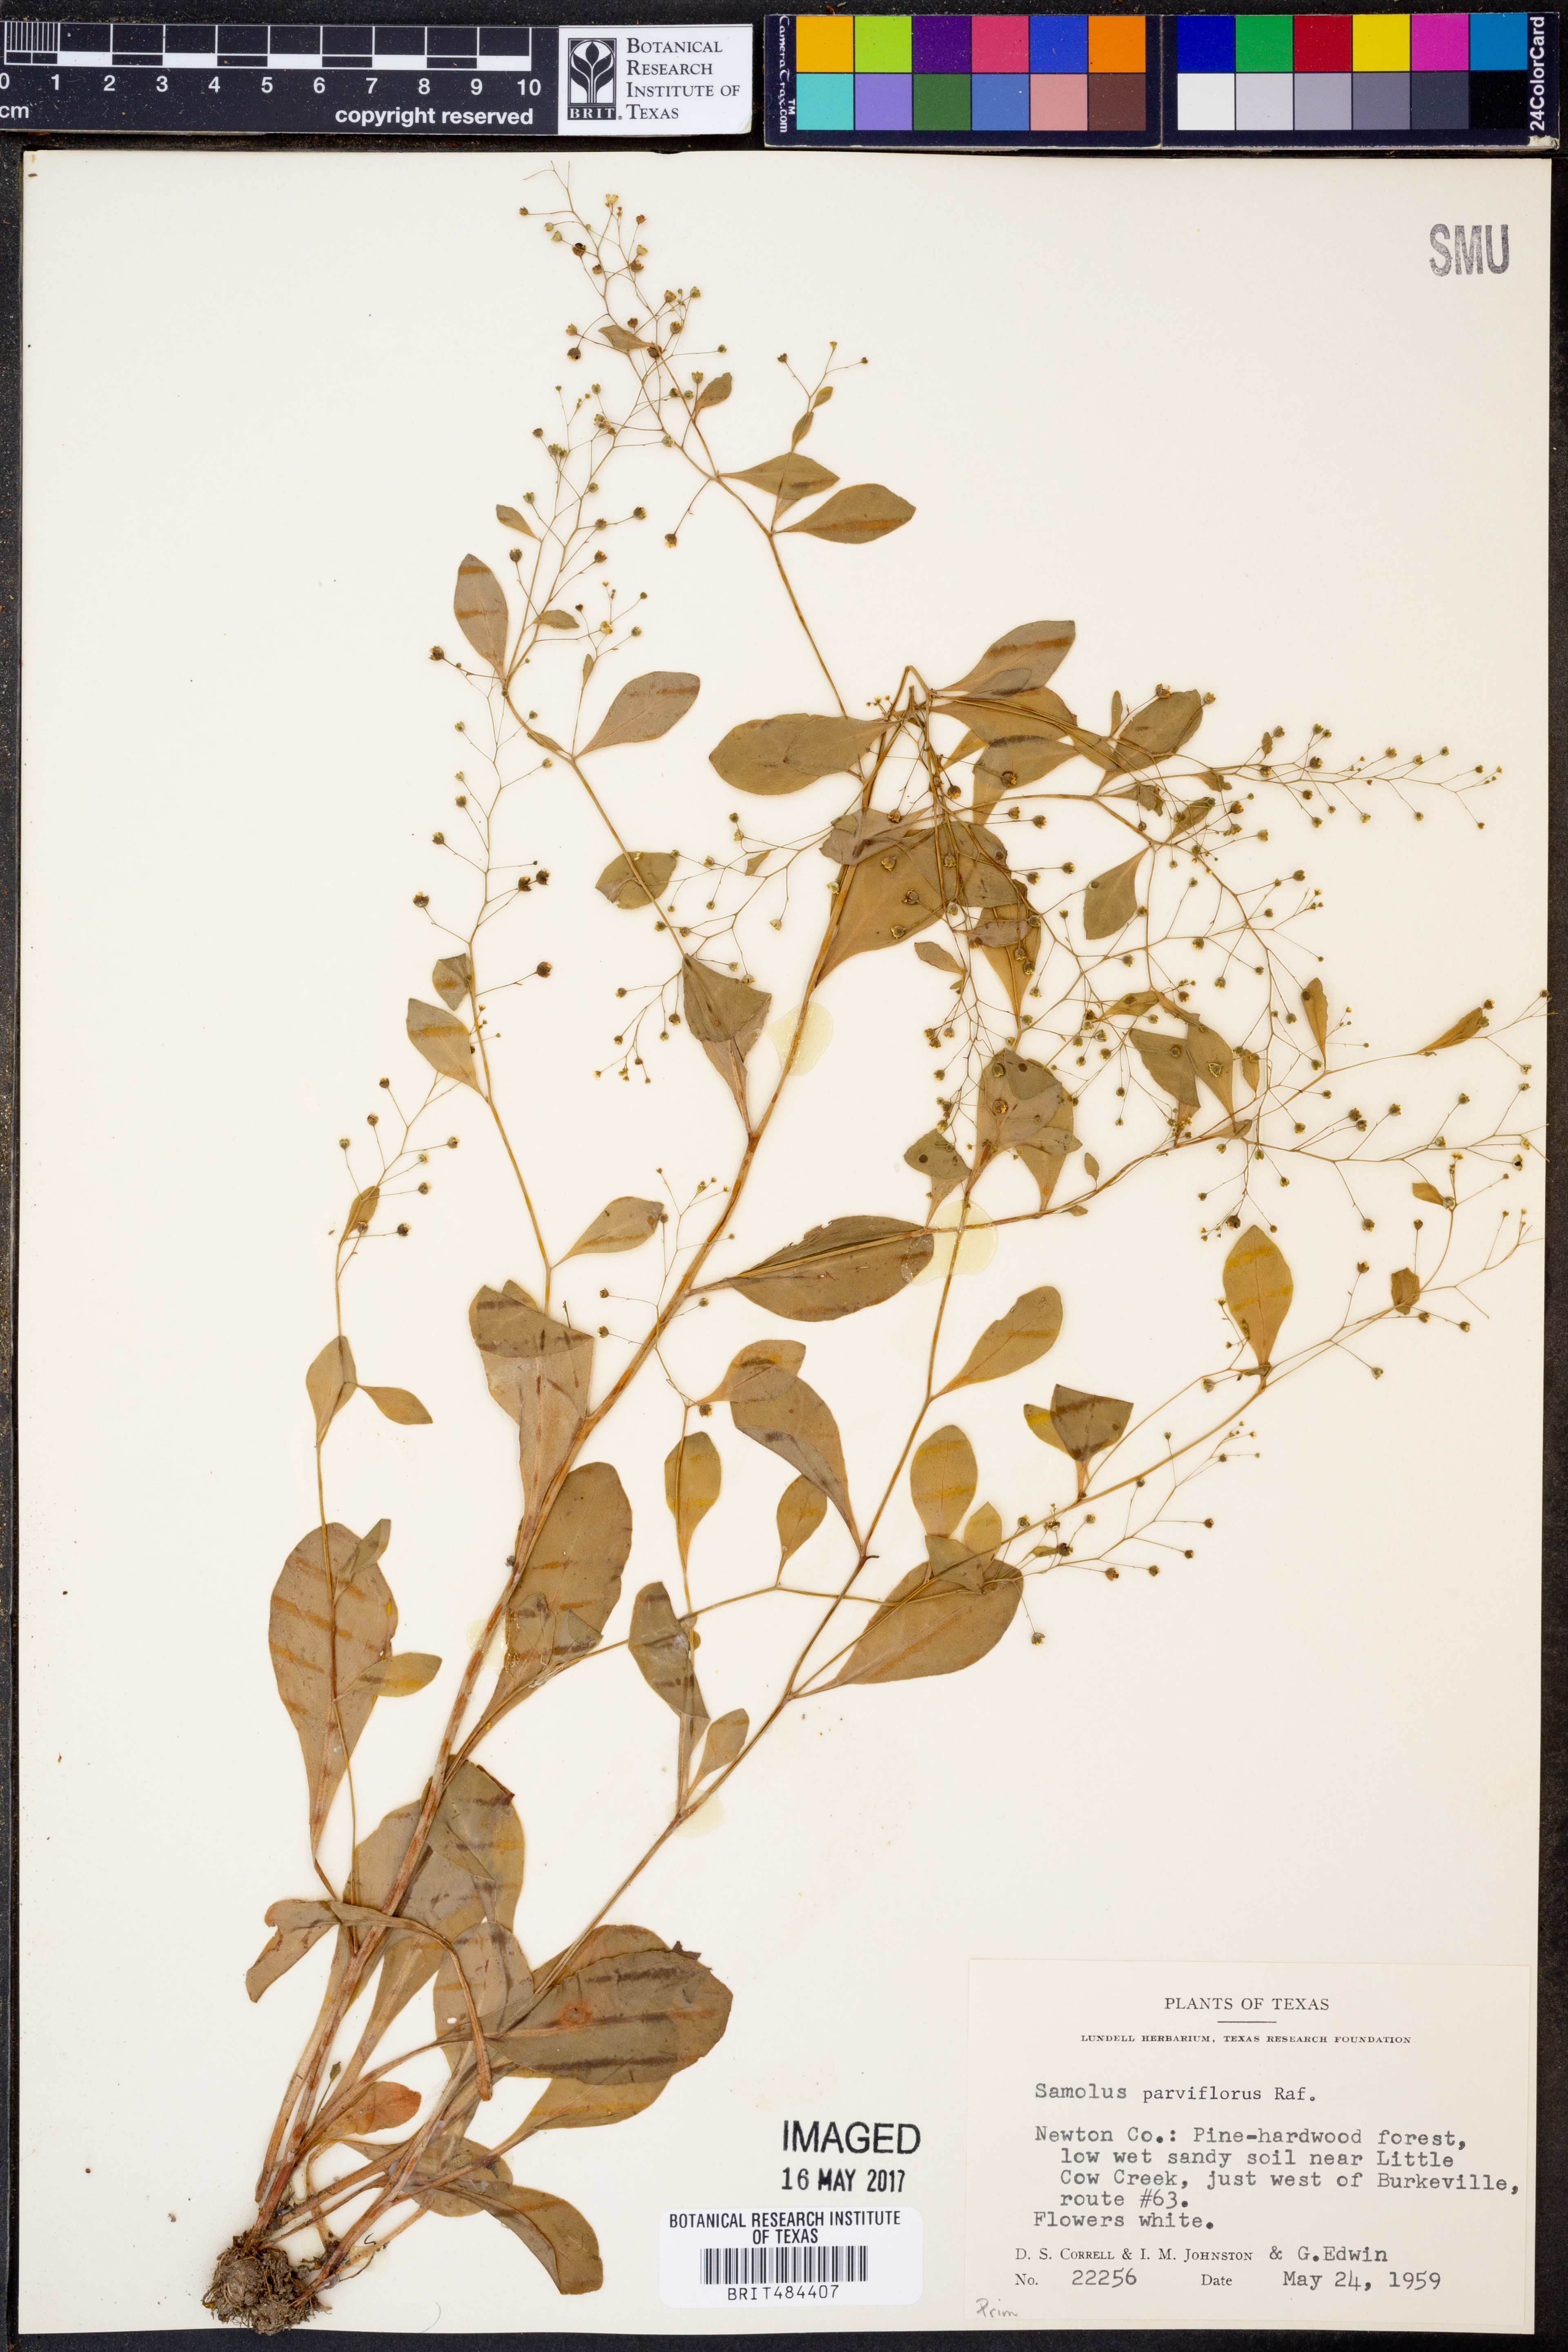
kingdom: Plantae
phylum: Tracheophyta
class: Magnoliopsida
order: Ericales
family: Primulaceae
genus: Samolus
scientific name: Samolus parviflorus
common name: False water pimpernel
